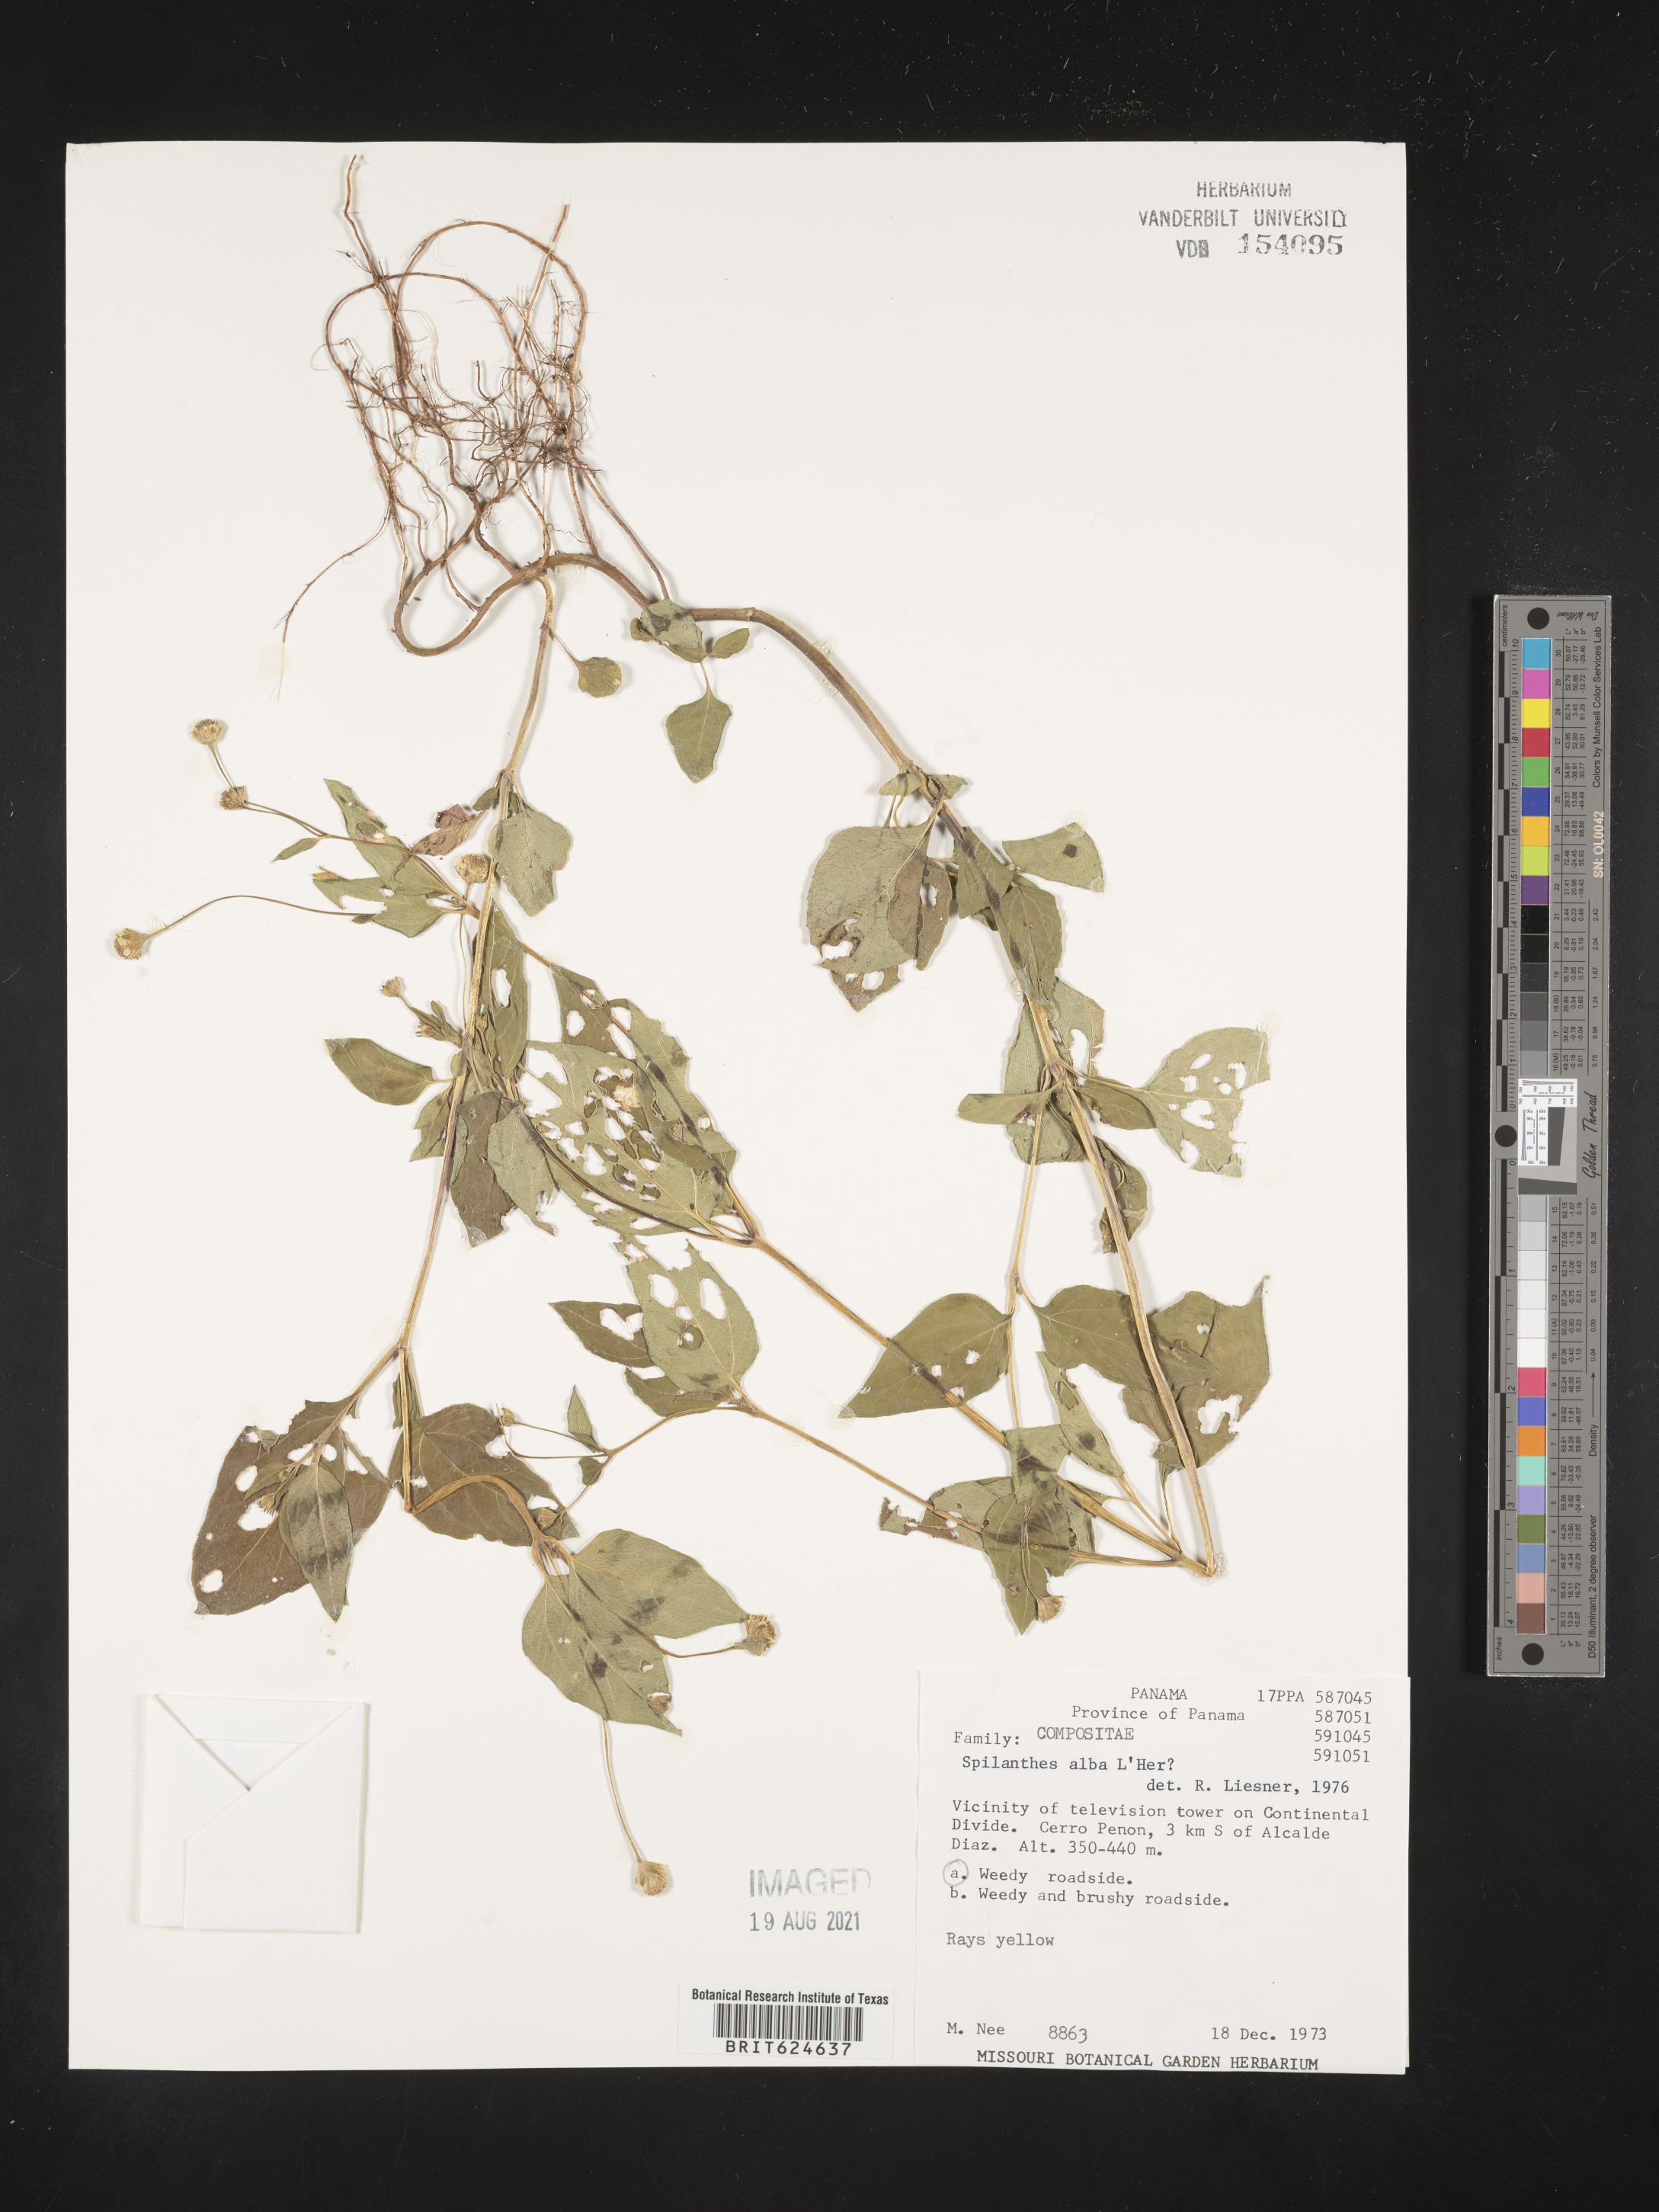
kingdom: Plantae
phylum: Tracheophyta
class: Magnoliopsida
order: Asterales
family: Asteraceae
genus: Spilanthes
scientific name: Spilanthes alba
